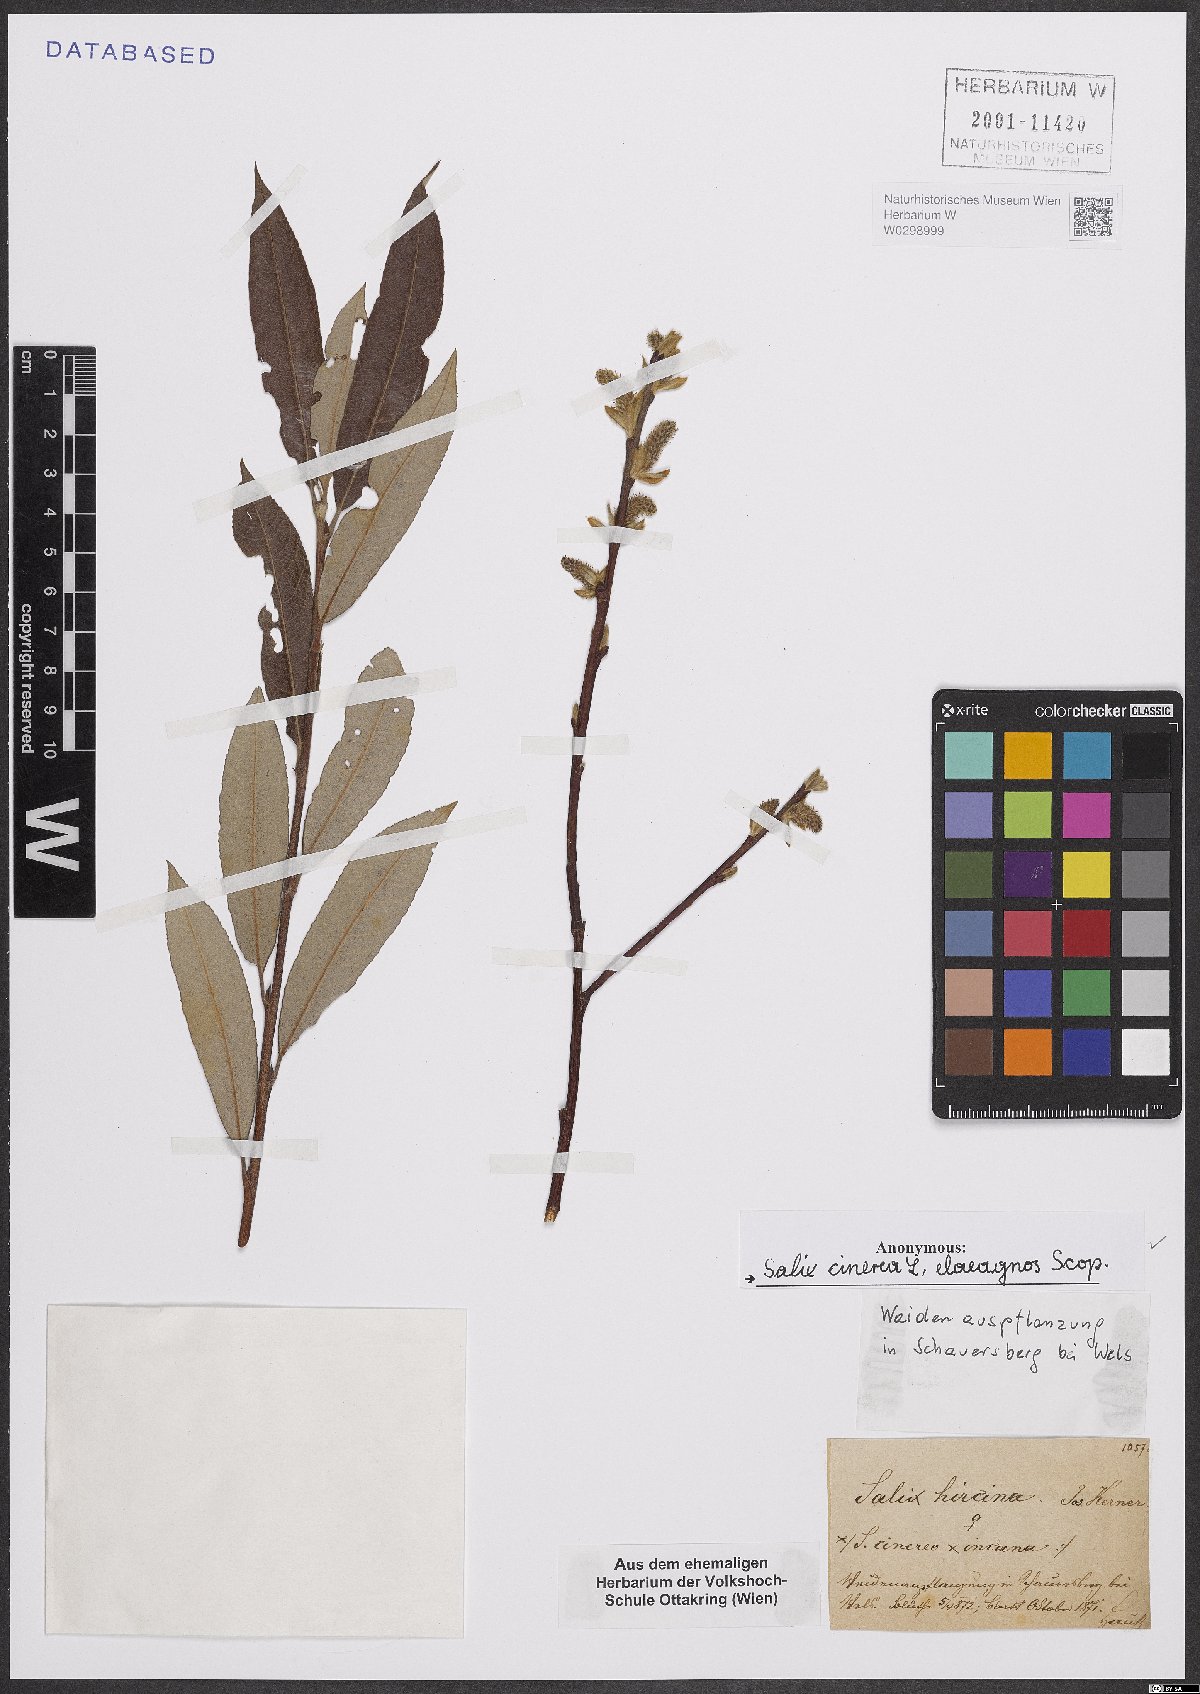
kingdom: Plantae
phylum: Tracheophyta
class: Magnoliopsida
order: Malpighiales
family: Salicaceae
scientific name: Salicaceae
